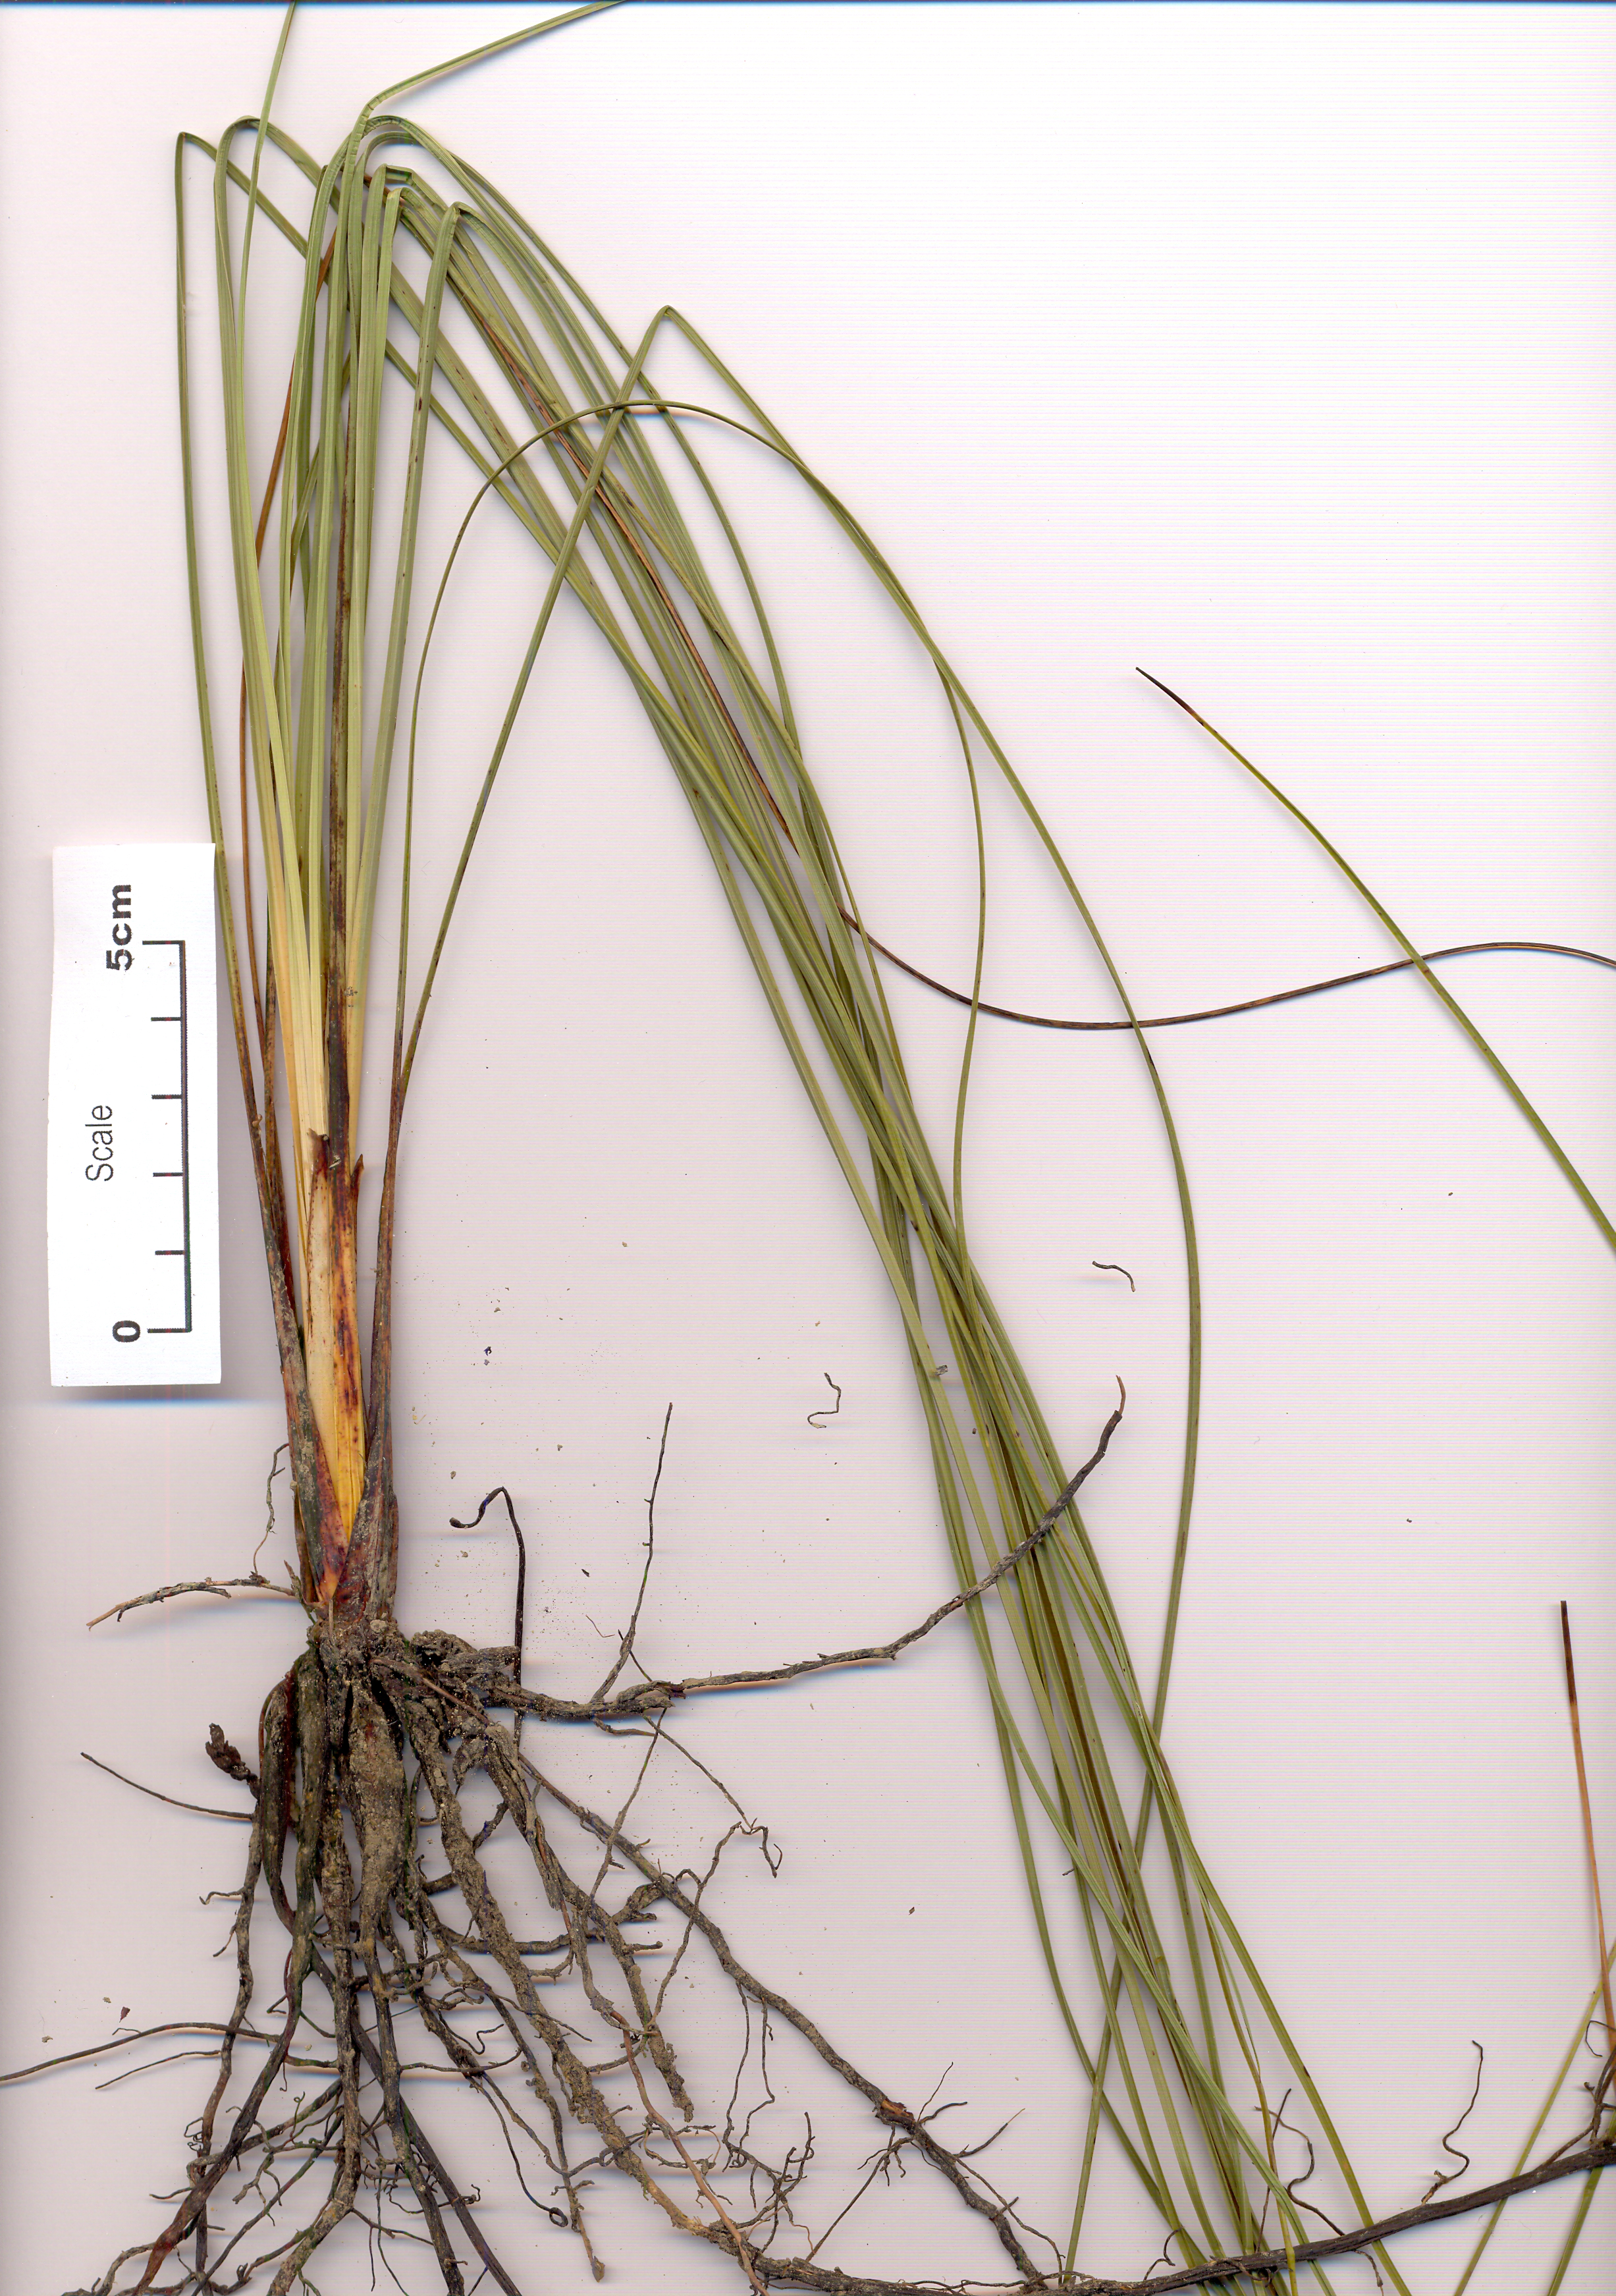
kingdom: Plantae
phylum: Tracheophyta
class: Liliopsida
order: Asparagales
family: Asphodelaceae
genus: Xanthorrhoea
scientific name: Xanthorrhoea johnsonii
